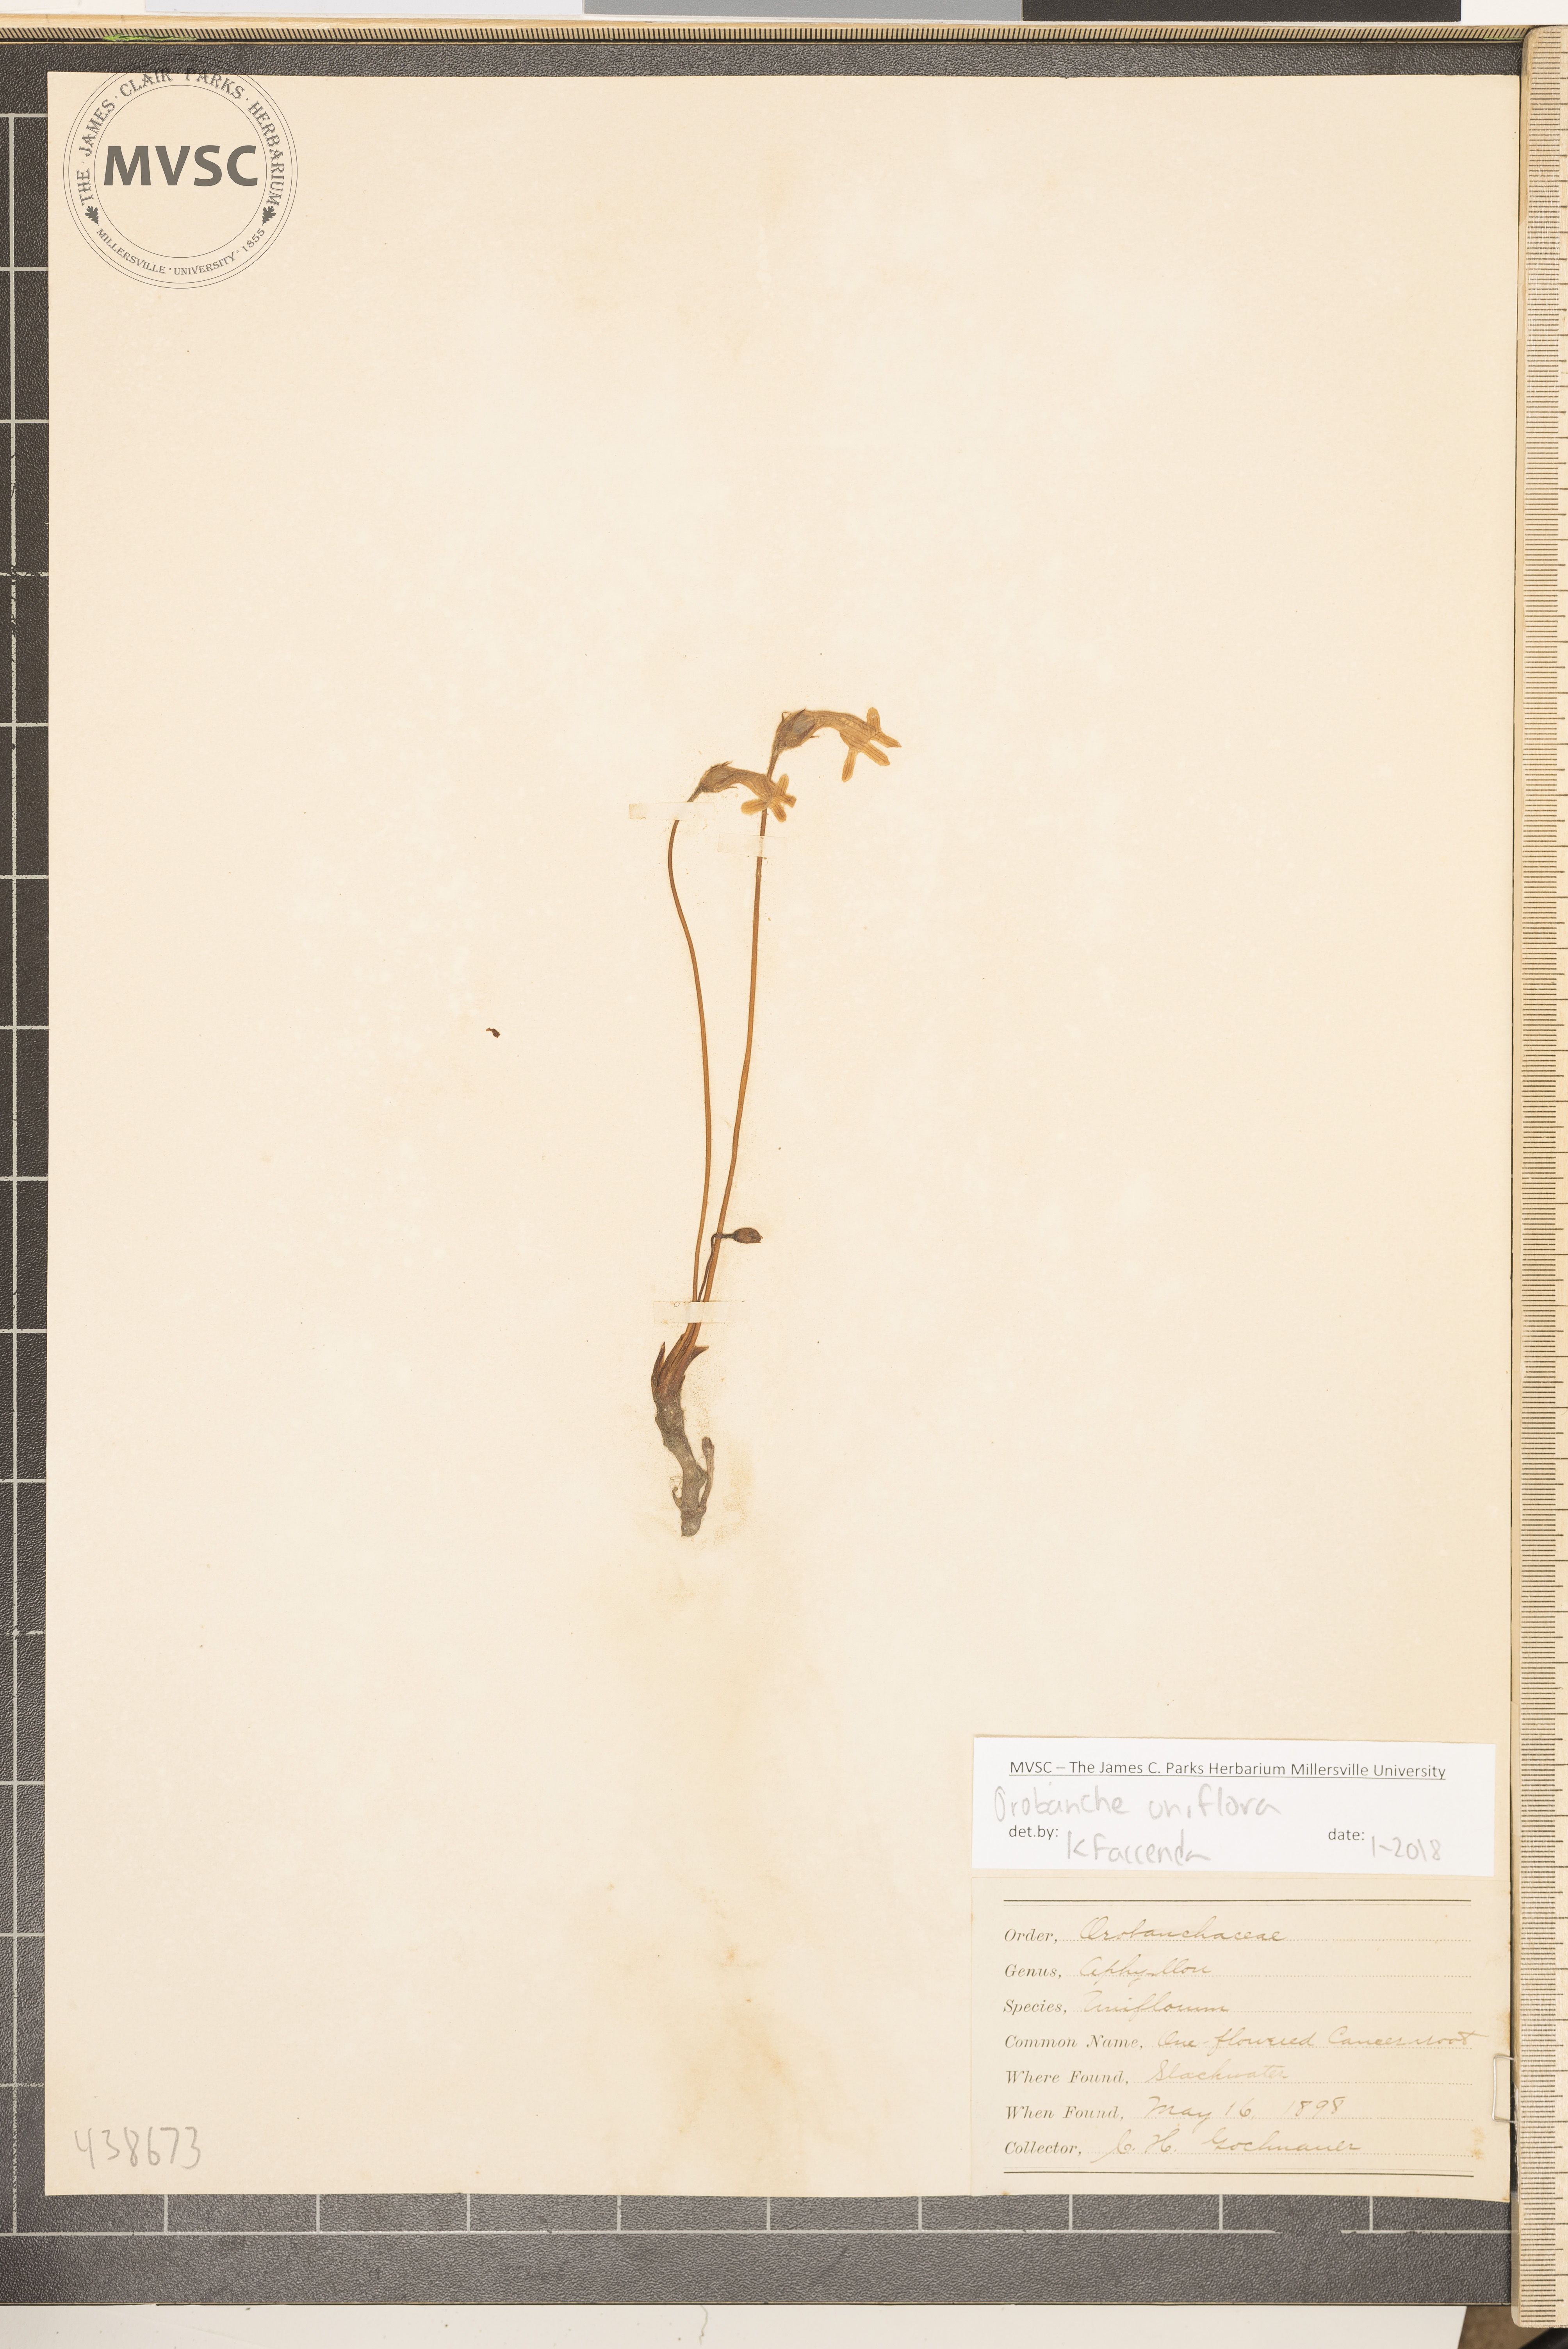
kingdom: Plantae
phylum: Tracheophyta
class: Magnoliopsida
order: Lamiales
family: Orobanchaceae
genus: Aphyllon
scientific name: Aphyllon uniflorum
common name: One-flowered broomrape
